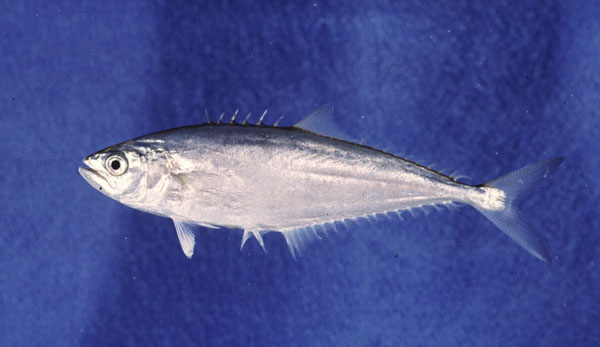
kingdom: Animalia
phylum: Chordata
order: Perciformes
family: Carangidae
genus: Scomberoides
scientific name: Scomberoides tol
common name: Needlescaled queenfish
